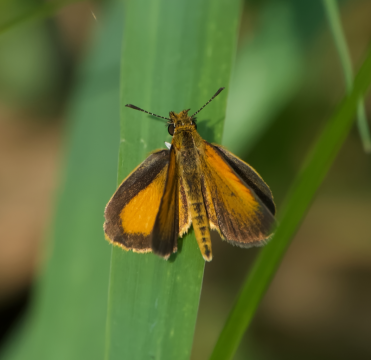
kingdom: Animalia
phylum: Arthropoda
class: Insecta
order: Lepidoptera
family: Hesperiidae
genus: Ancyloxypha
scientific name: Ancyloxypha numitor
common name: Least Skipper
